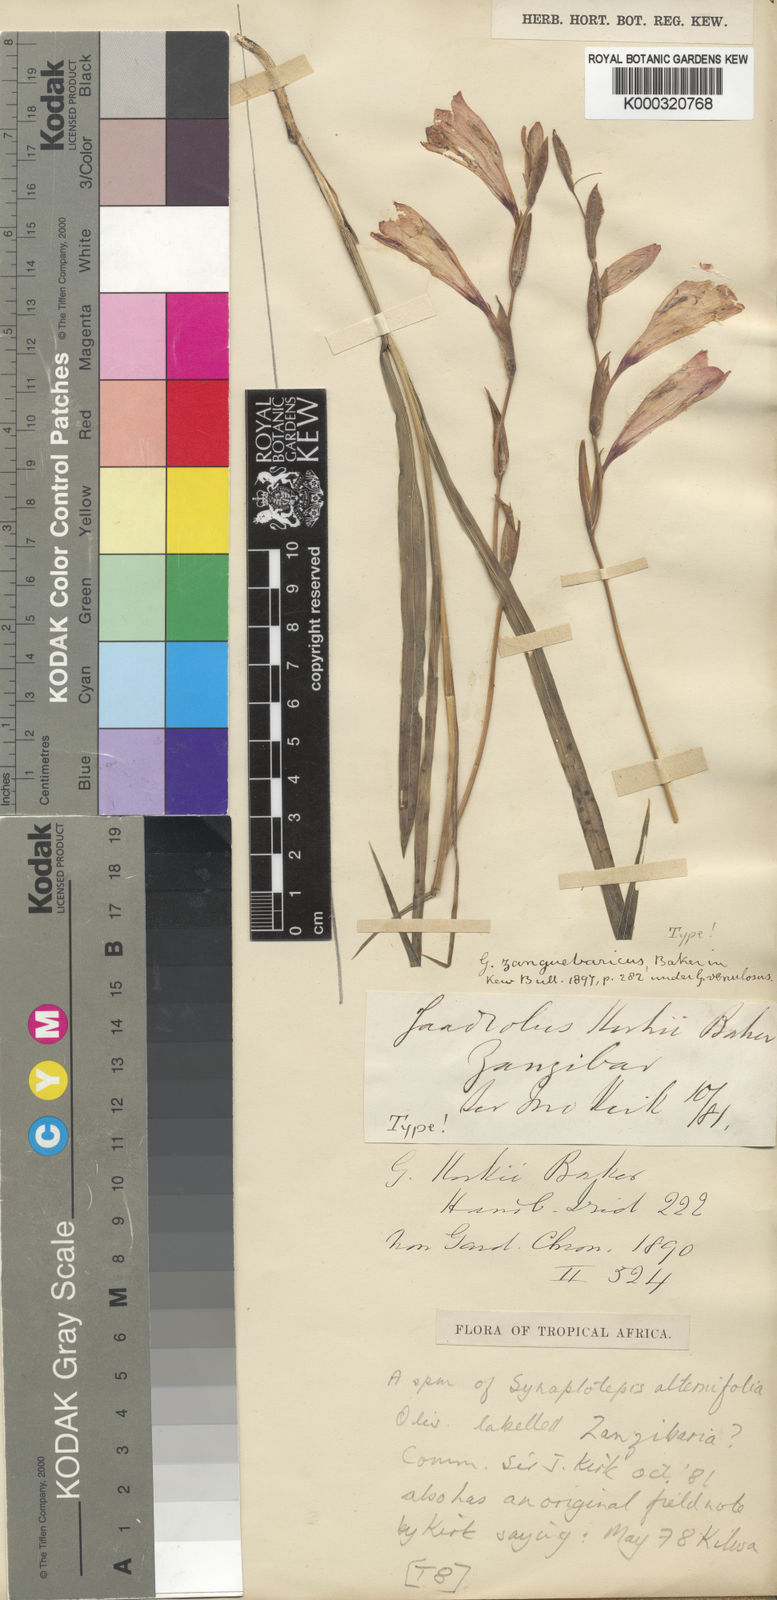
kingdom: Plantae
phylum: Tracheophyta
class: Liliopsida
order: Asparagales
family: Iridaceae
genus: Gladiolus
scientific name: Gladiolus decoratus
